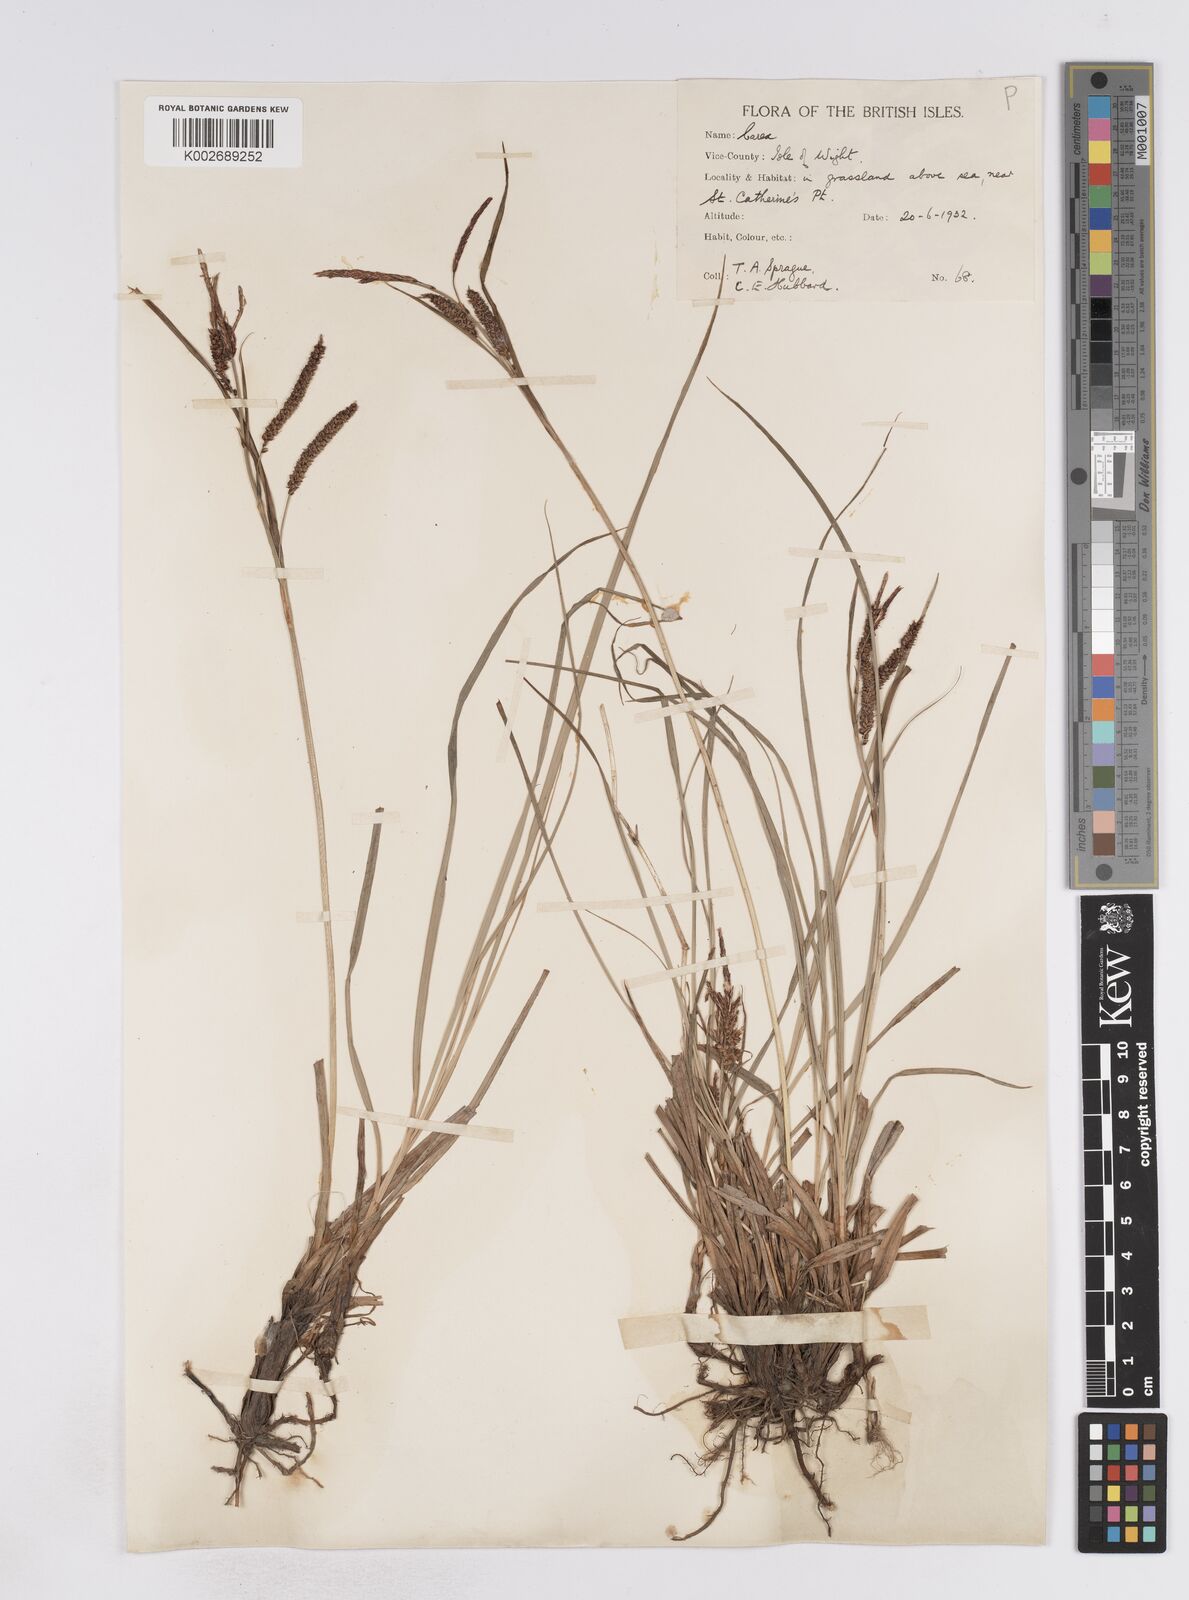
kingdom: Plantae
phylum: Tracheophyta
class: Liliopsida
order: Poales
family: Cyperaceae
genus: Carex
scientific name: Carex flacca
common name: Glaucous sedge
